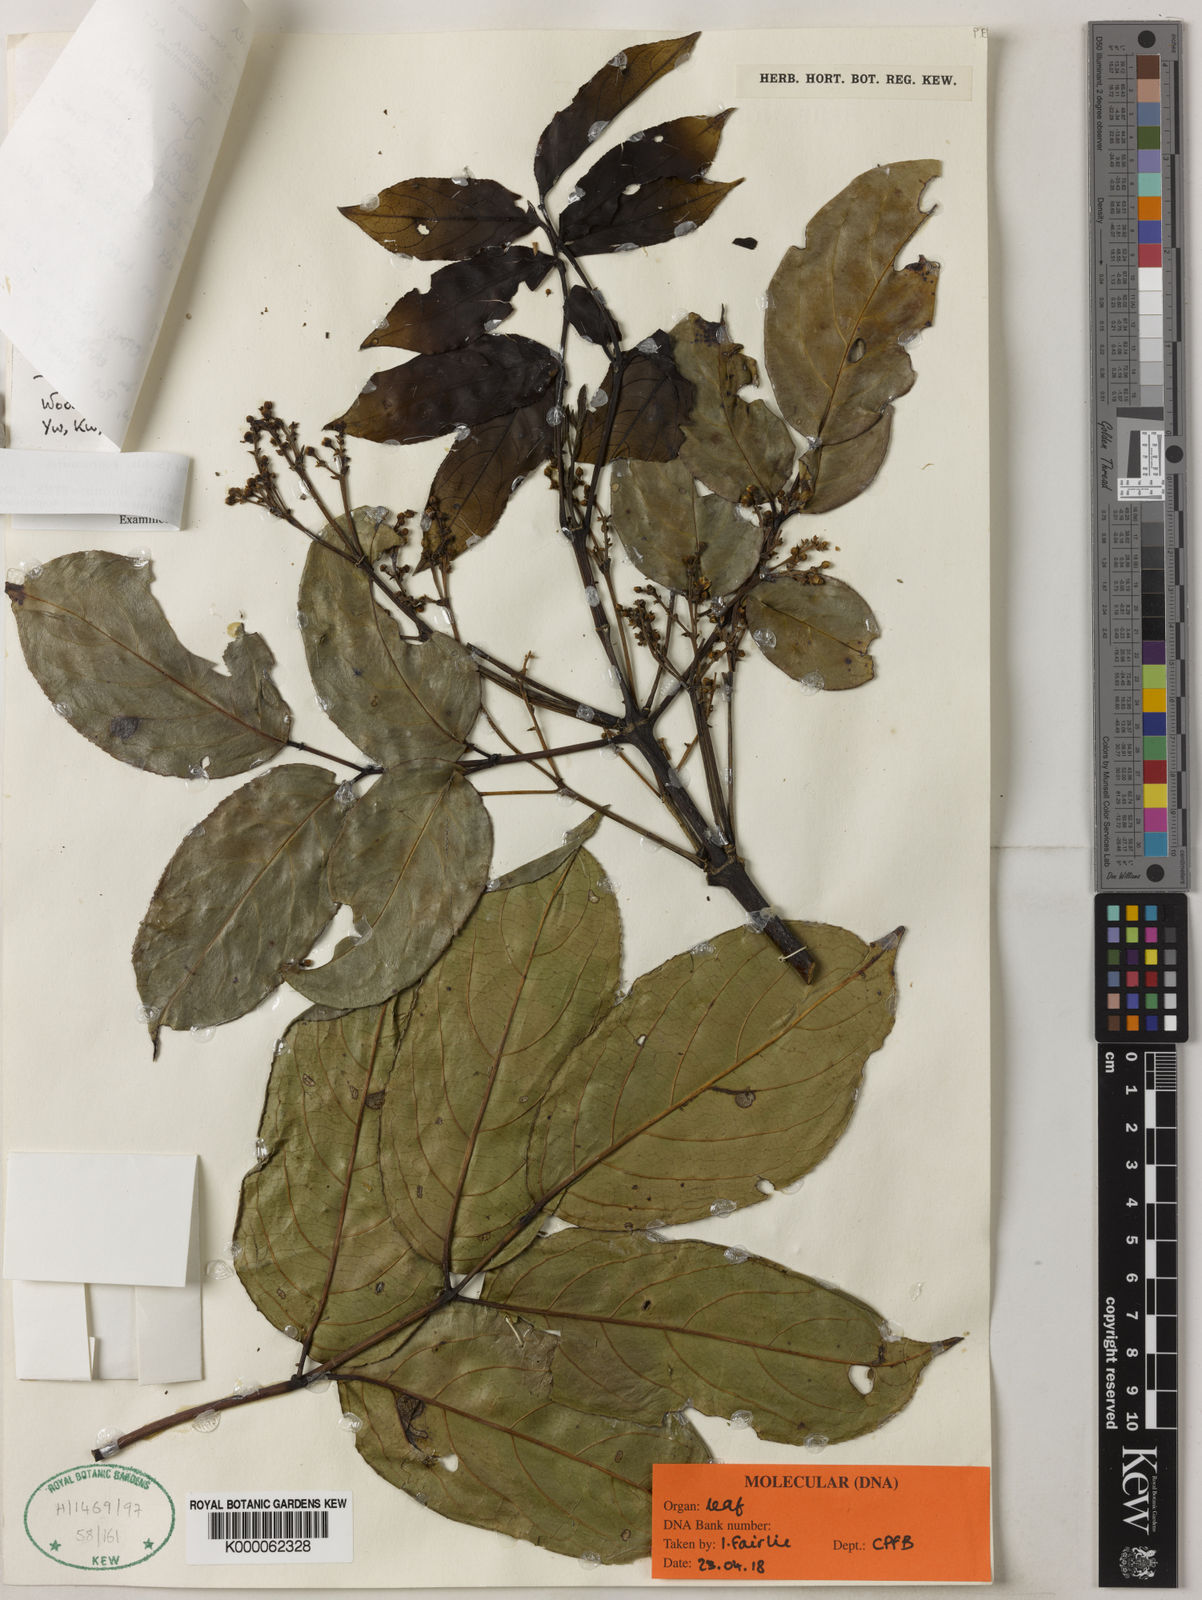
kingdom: Plantae
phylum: Tracheophyta
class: Magnoliopsida
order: Crossosomatales
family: Staphyleaceae
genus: Dalrympelea
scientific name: Dalrympelea
